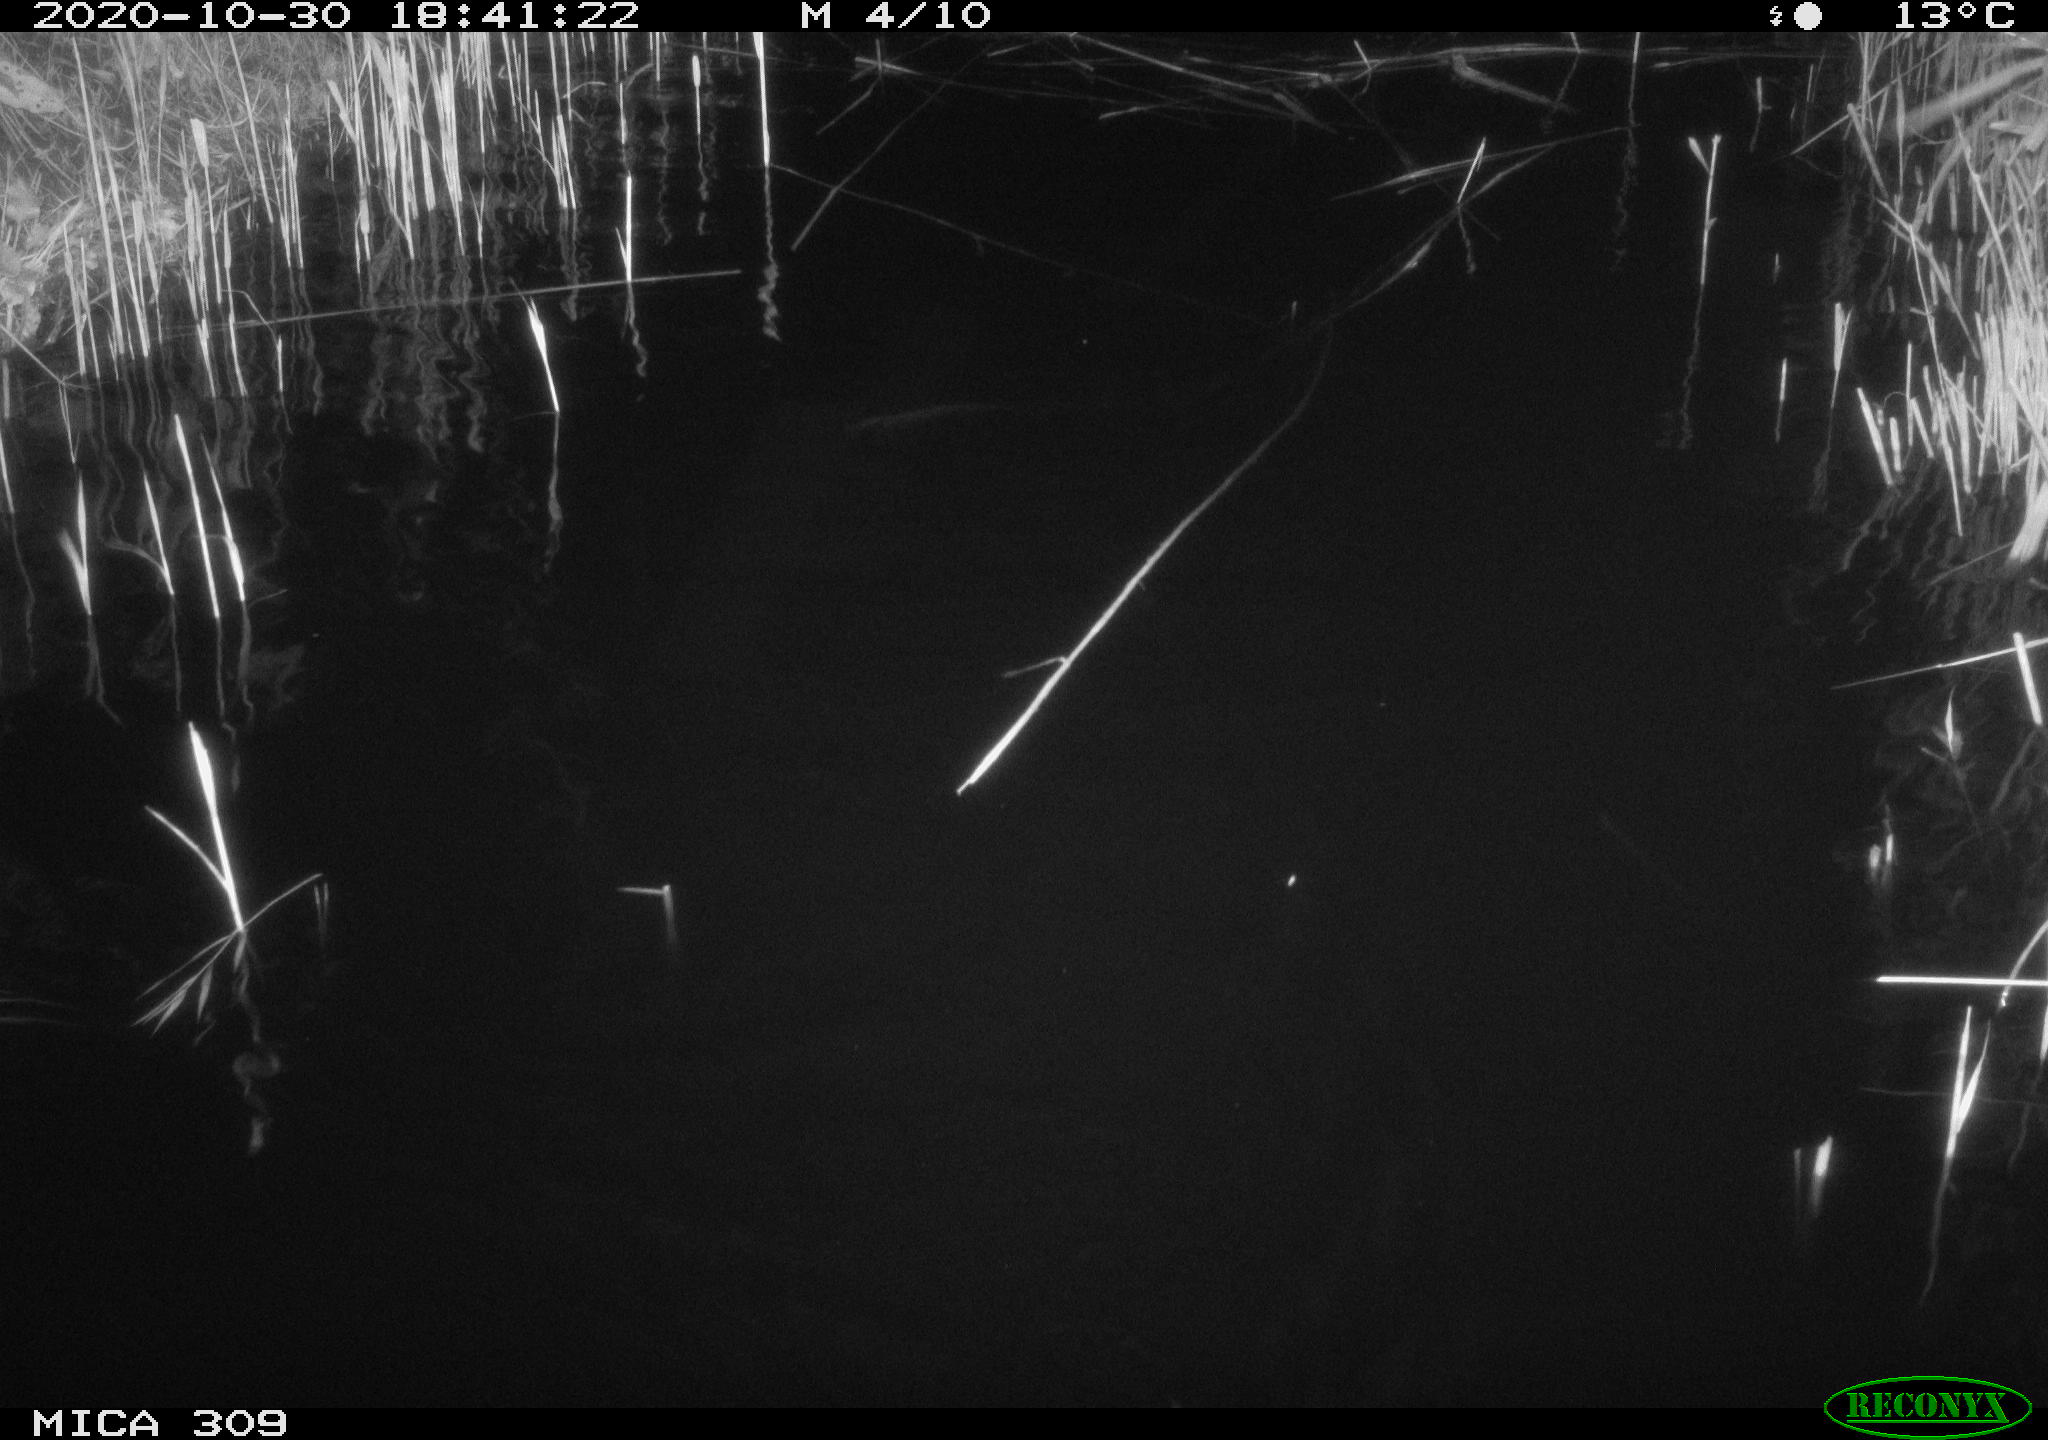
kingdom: Animalia
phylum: Chordata
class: Mammalia
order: Rodentia
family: Muridae
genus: Rattus
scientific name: Rattus norvegicus
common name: Brown rat
